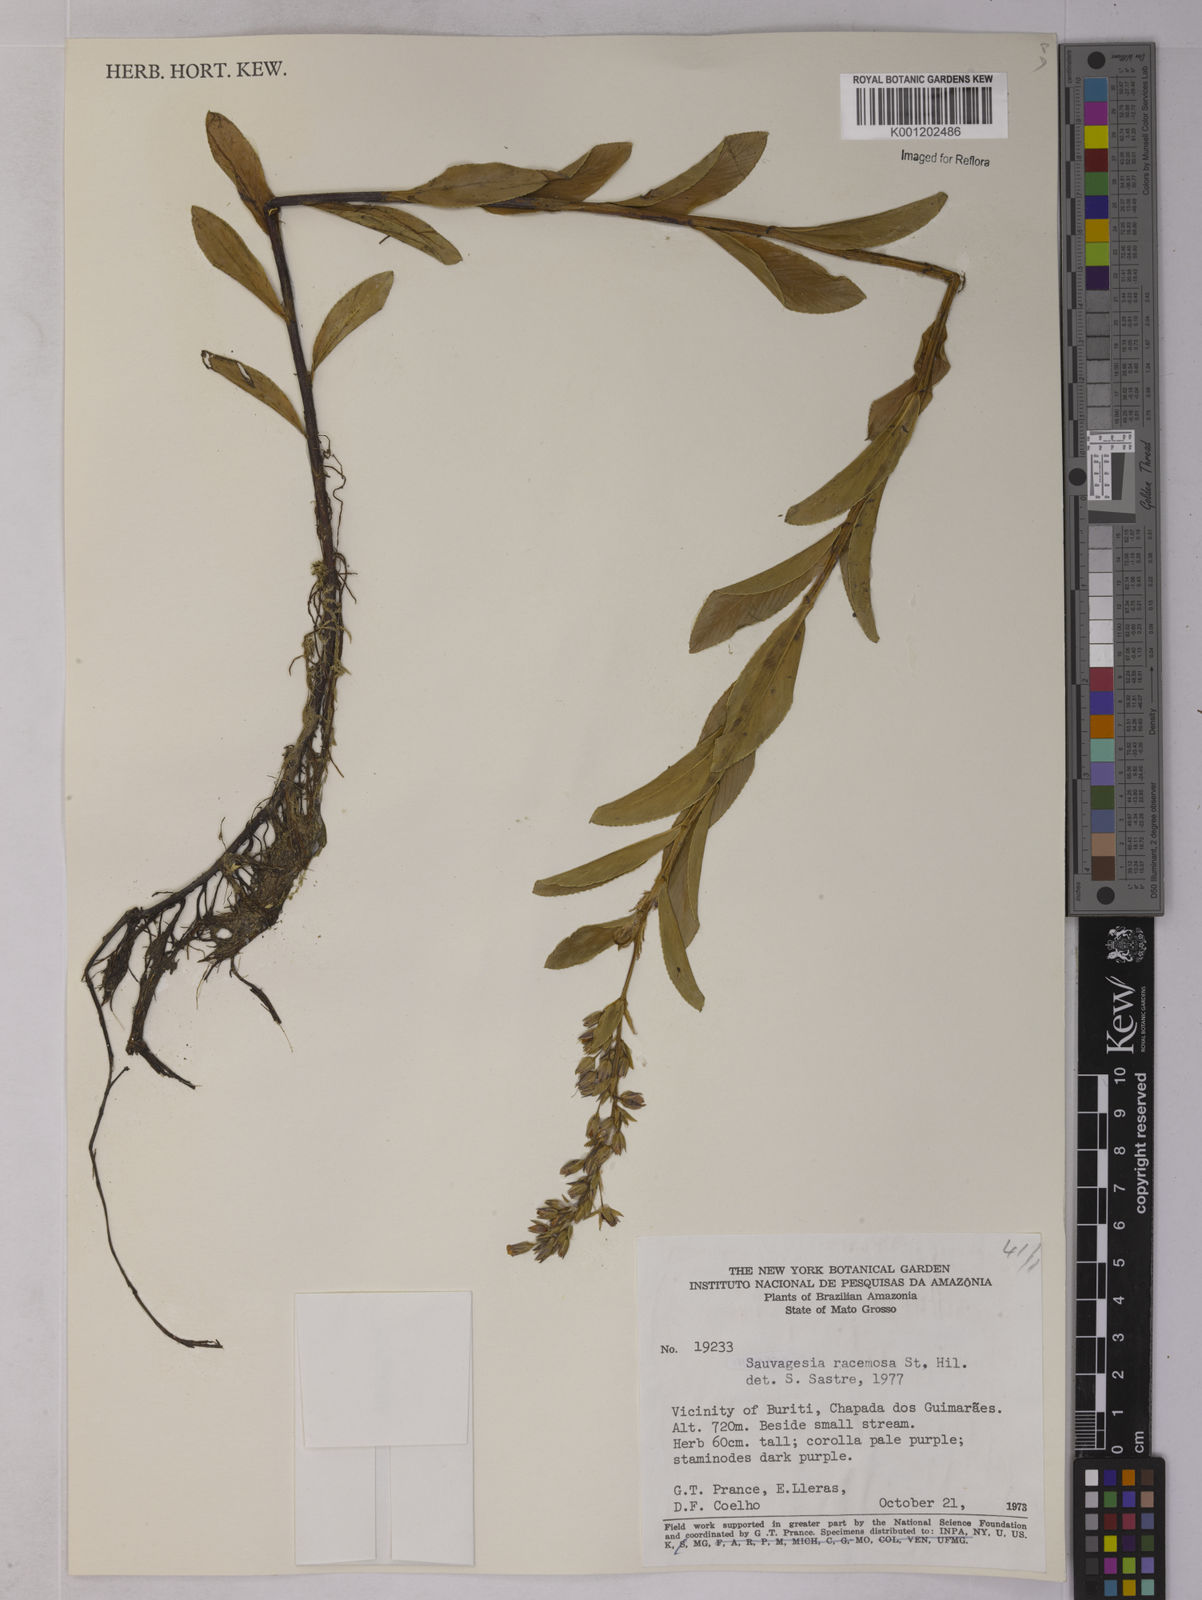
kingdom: Plantae
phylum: Tracheophyta
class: Magnoliopsida
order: Malpighiales
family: Ochnaceae
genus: Sauvagesia
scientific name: Sauvagesia racemosa
